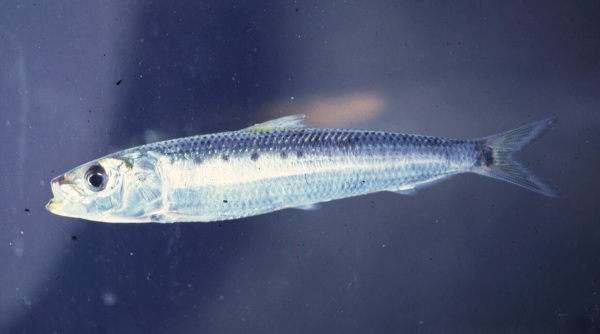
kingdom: Animalia
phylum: Chordata
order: Clupeiformes
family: Clupeidae
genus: Sardinops
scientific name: Sardinops sagax
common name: Pilchard
